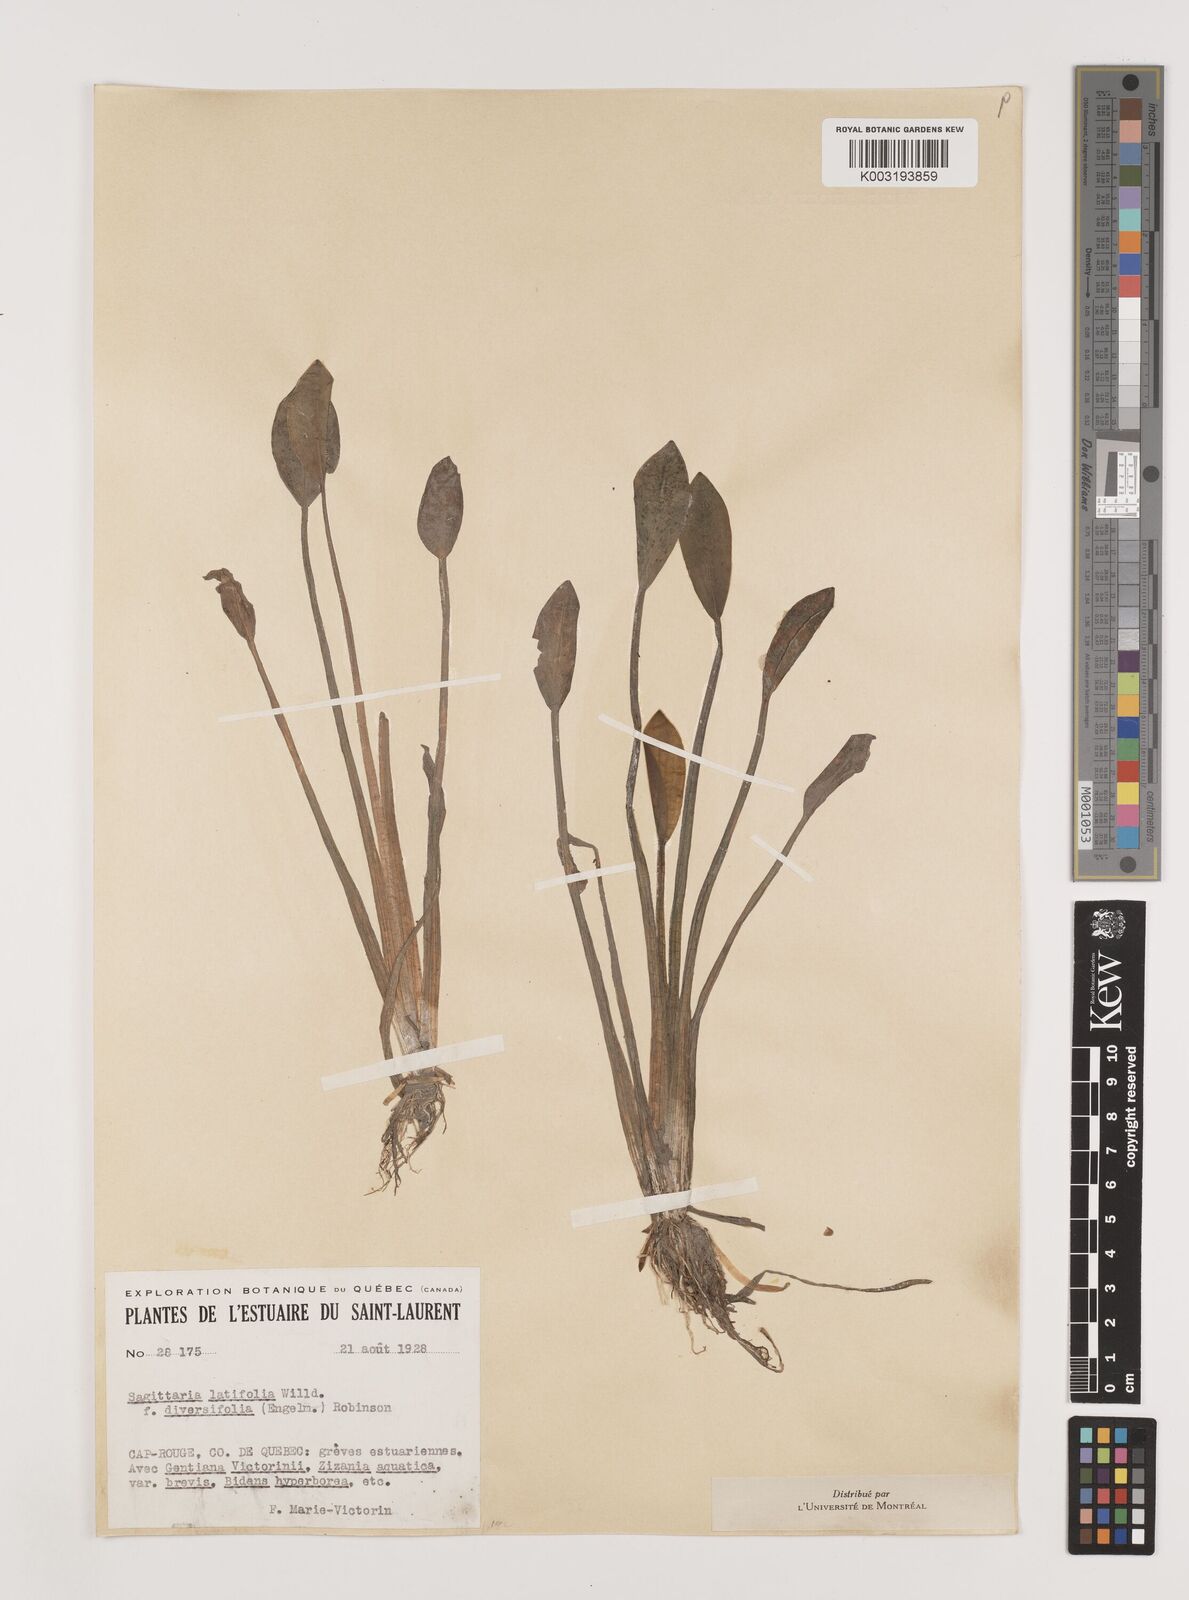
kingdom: Plantae
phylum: Tracheophyta
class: Liliopsida
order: Alismatales
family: Alismataceae
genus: Sagittaria
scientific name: Sagittaria latifolia
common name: Duck-potato
